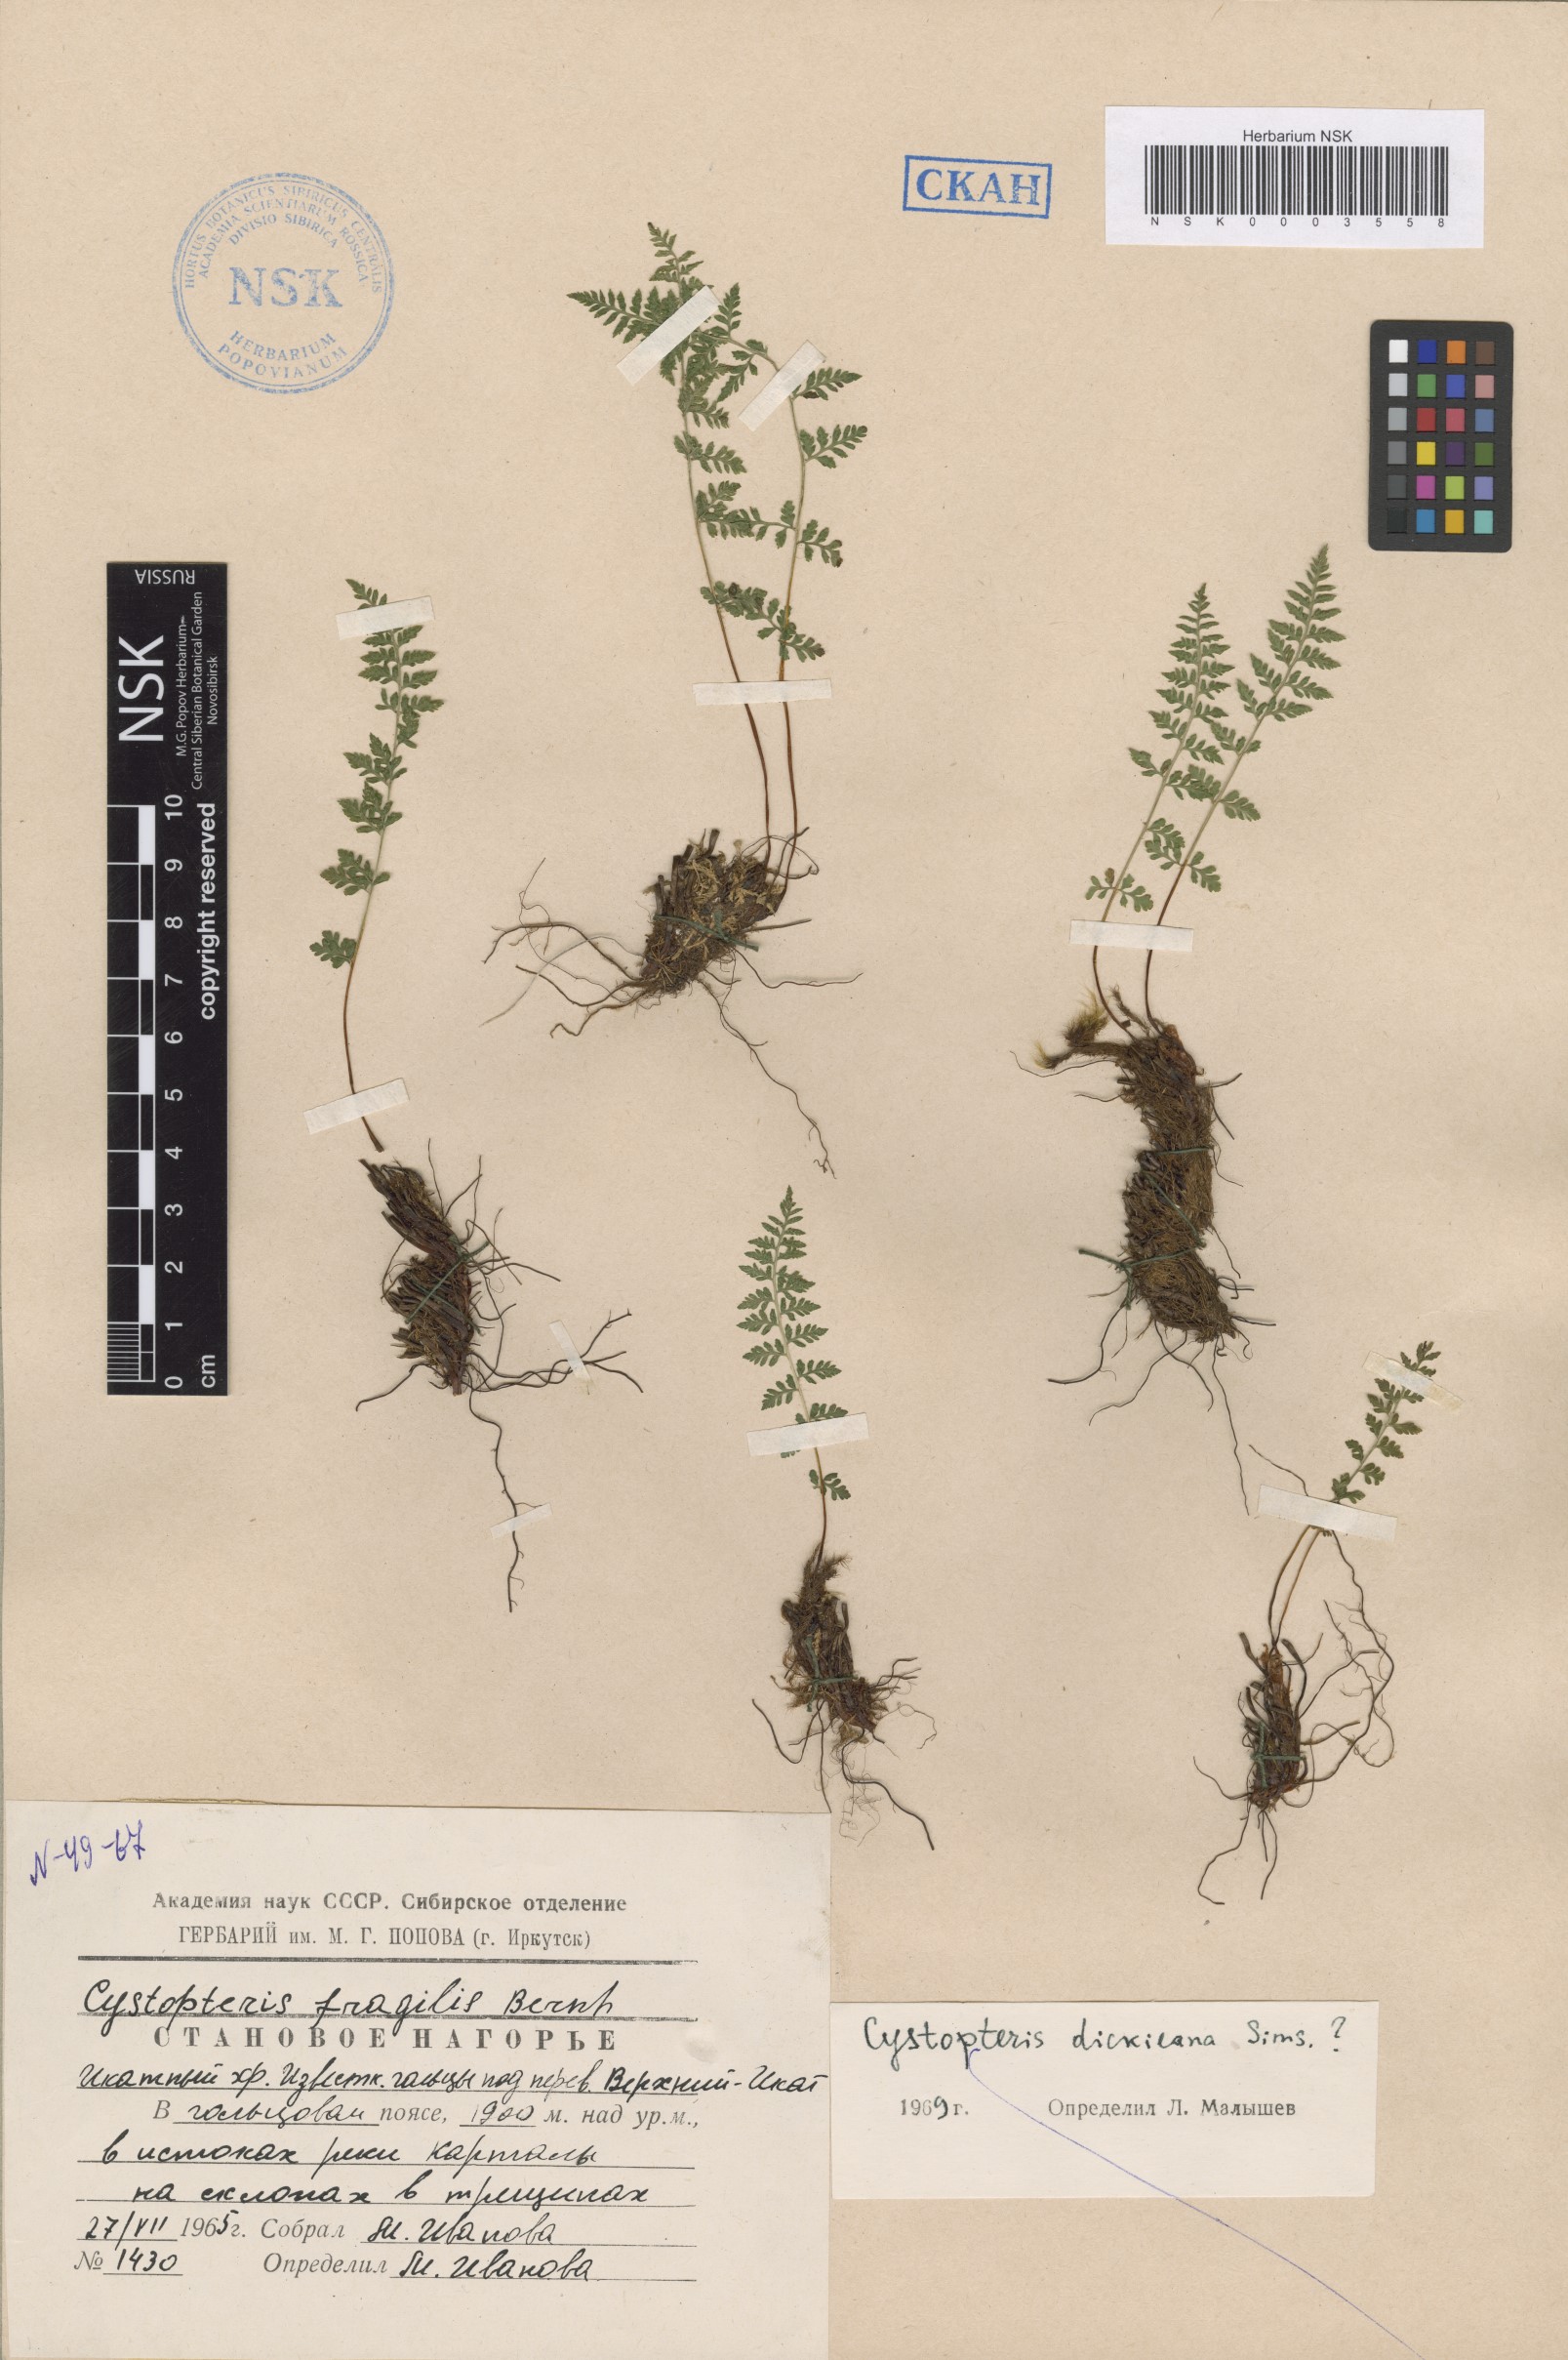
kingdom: Plantae
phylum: Tracheophyta
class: Polypodiopsida
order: Polypodiales
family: Cystopteridaceae
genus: Cystopteris
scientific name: Cystopteris dickieana
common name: Dickie's bladder-fern
